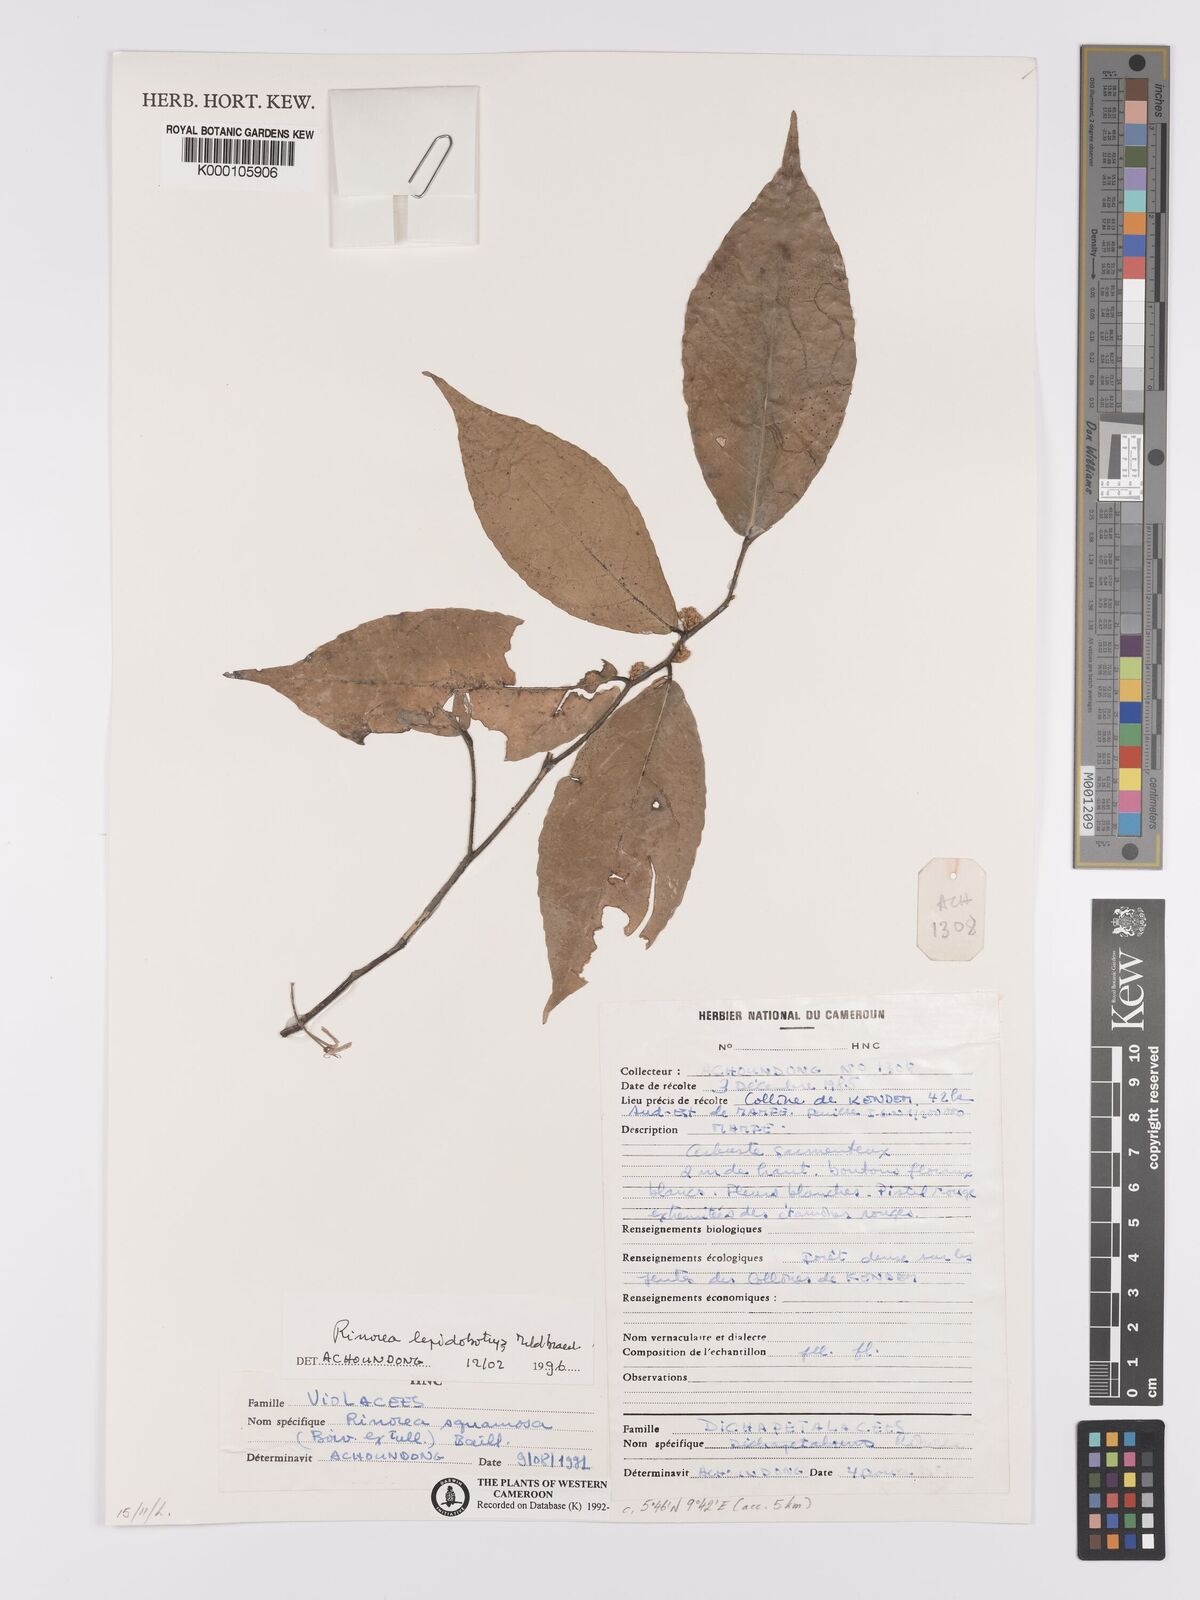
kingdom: Plantae
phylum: Tracheophyta
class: Magnoliopsida
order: Malpighiales
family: Violaceae
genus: Rinorea
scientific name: Rinorea lepidobotrys
